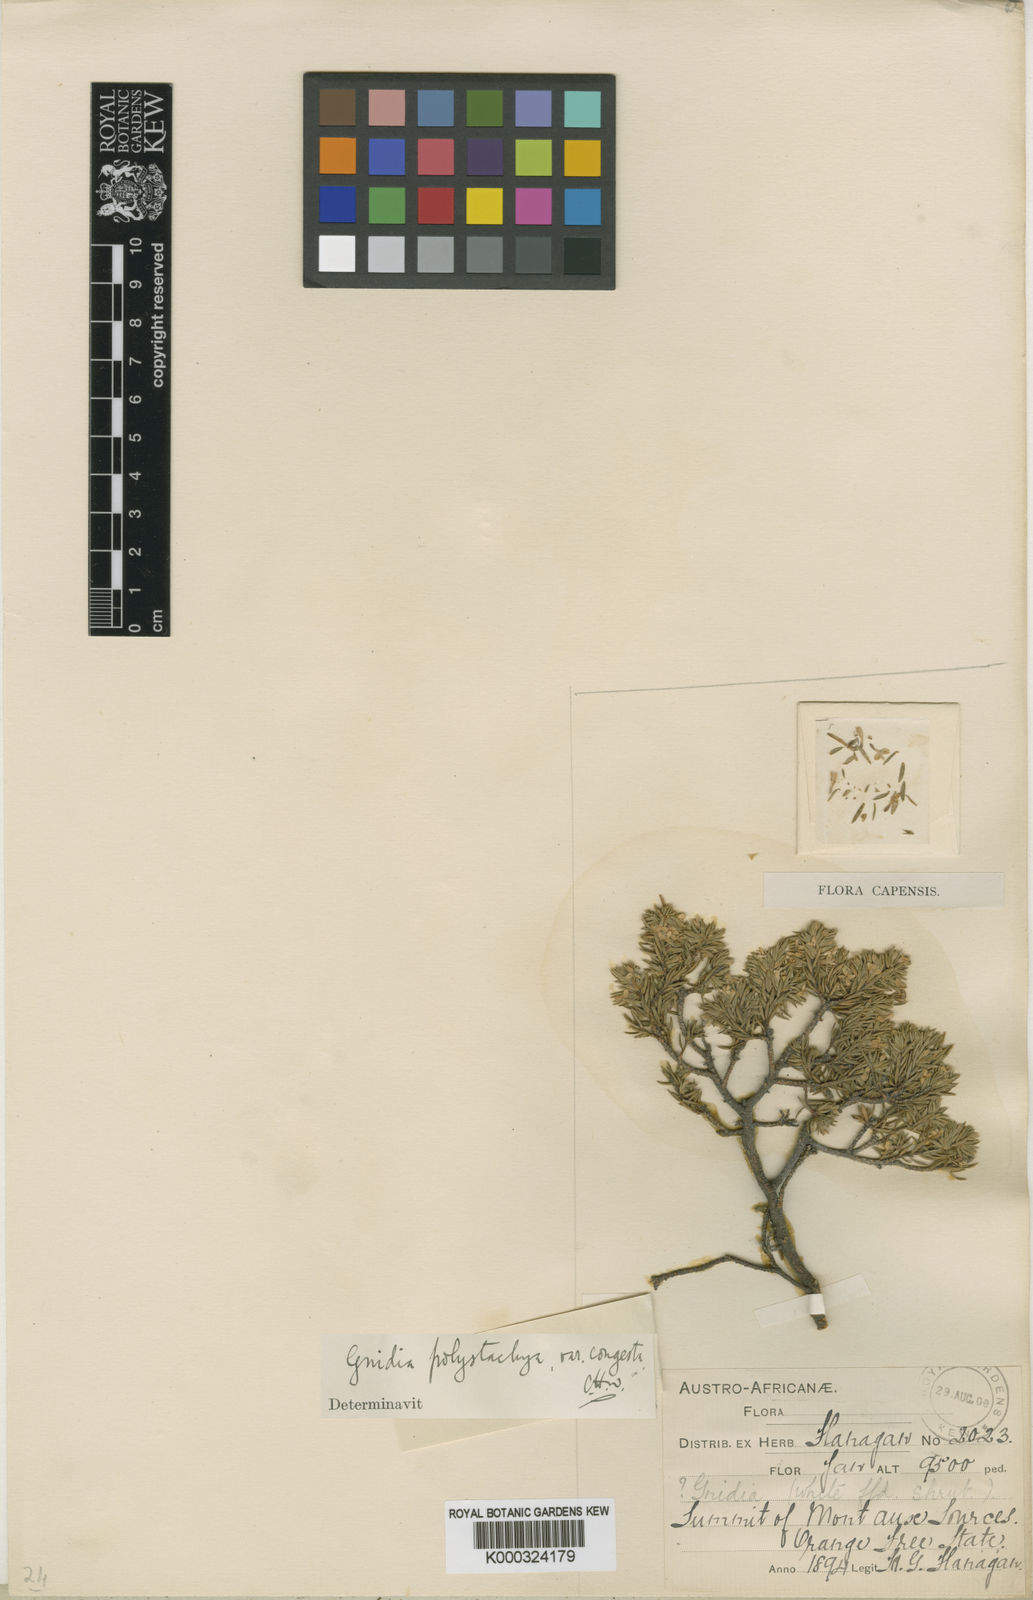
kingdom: Plantae
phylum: Tracheophyta
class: Magnoliopsida
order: Malvales
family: Thymelaeaceae
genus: Gnidia
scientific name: Gnidia polyantha
